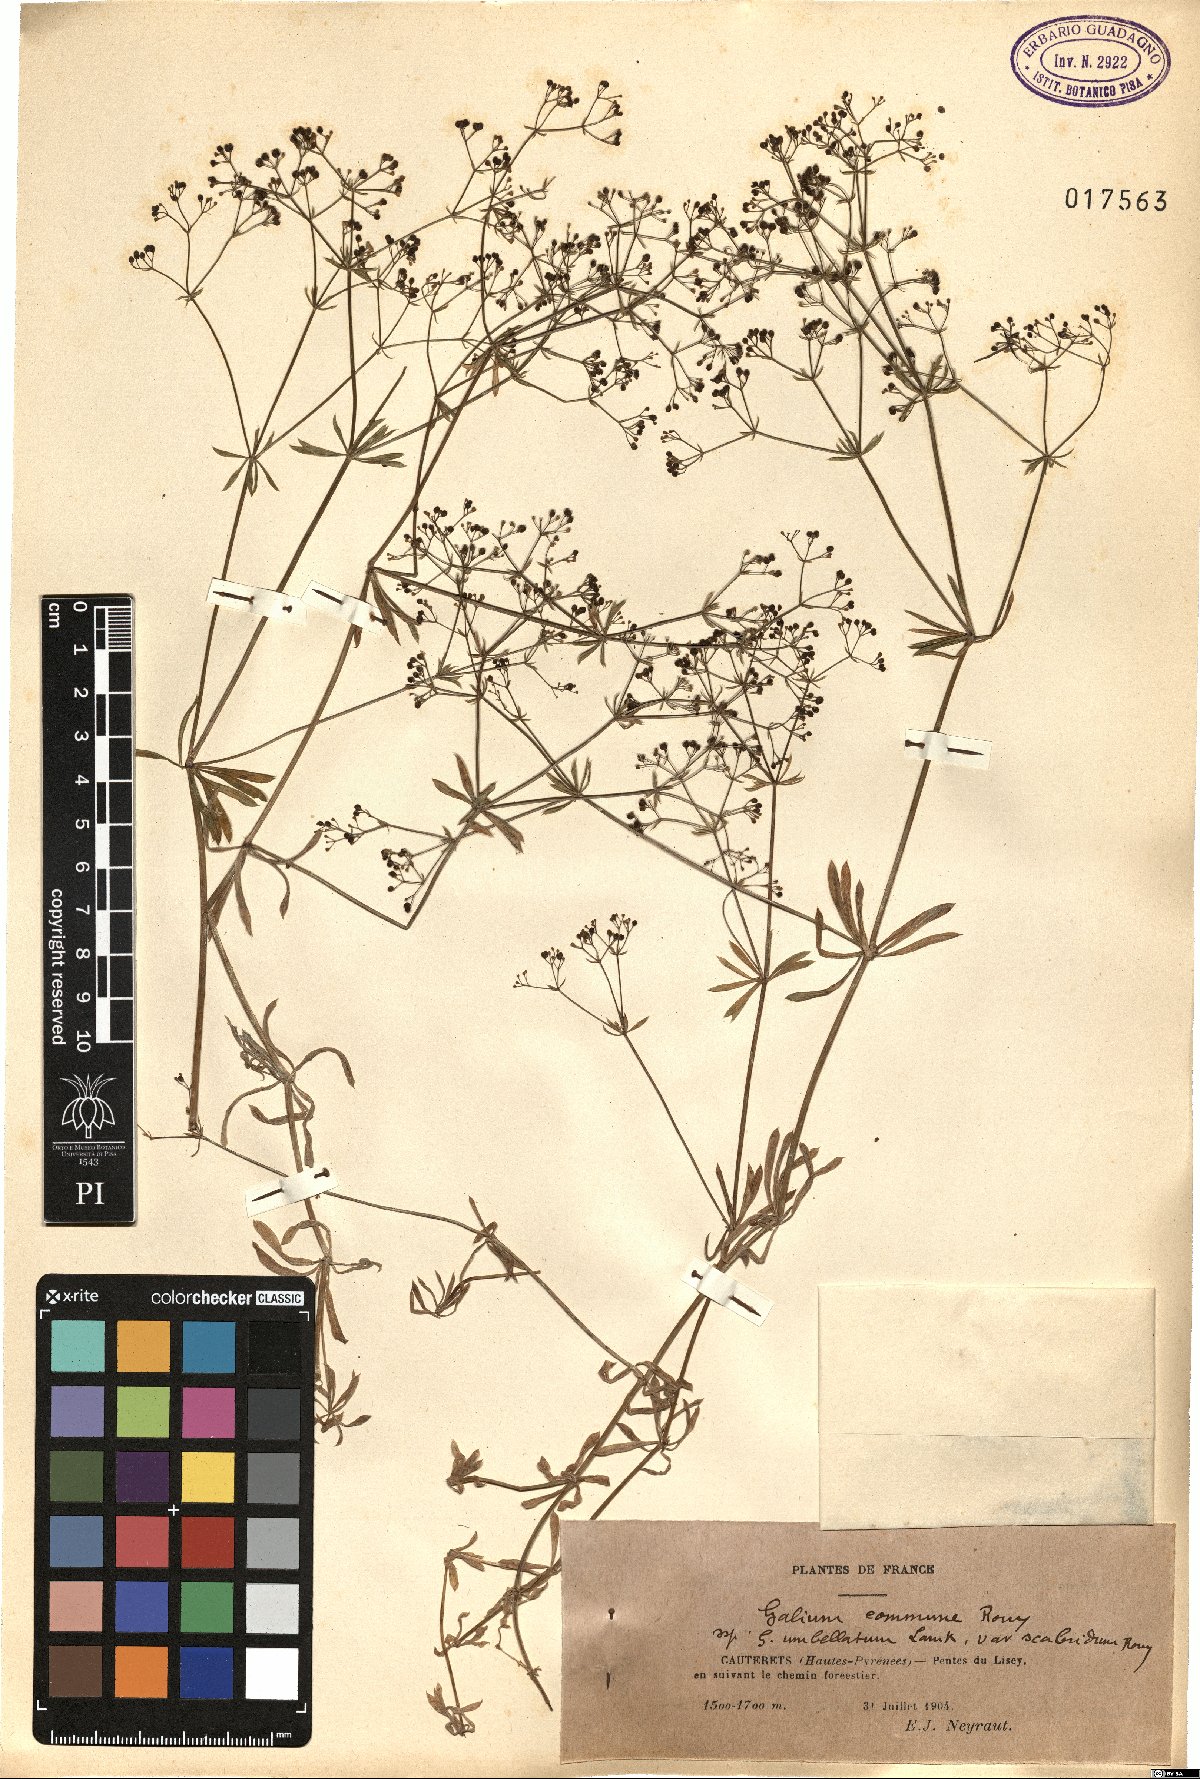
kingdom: Plantae
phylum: Tracheophyta
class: Magnoliopsida
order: Gentianales
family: Rubiaceae
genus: Galium
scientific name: Galium timeroyi
